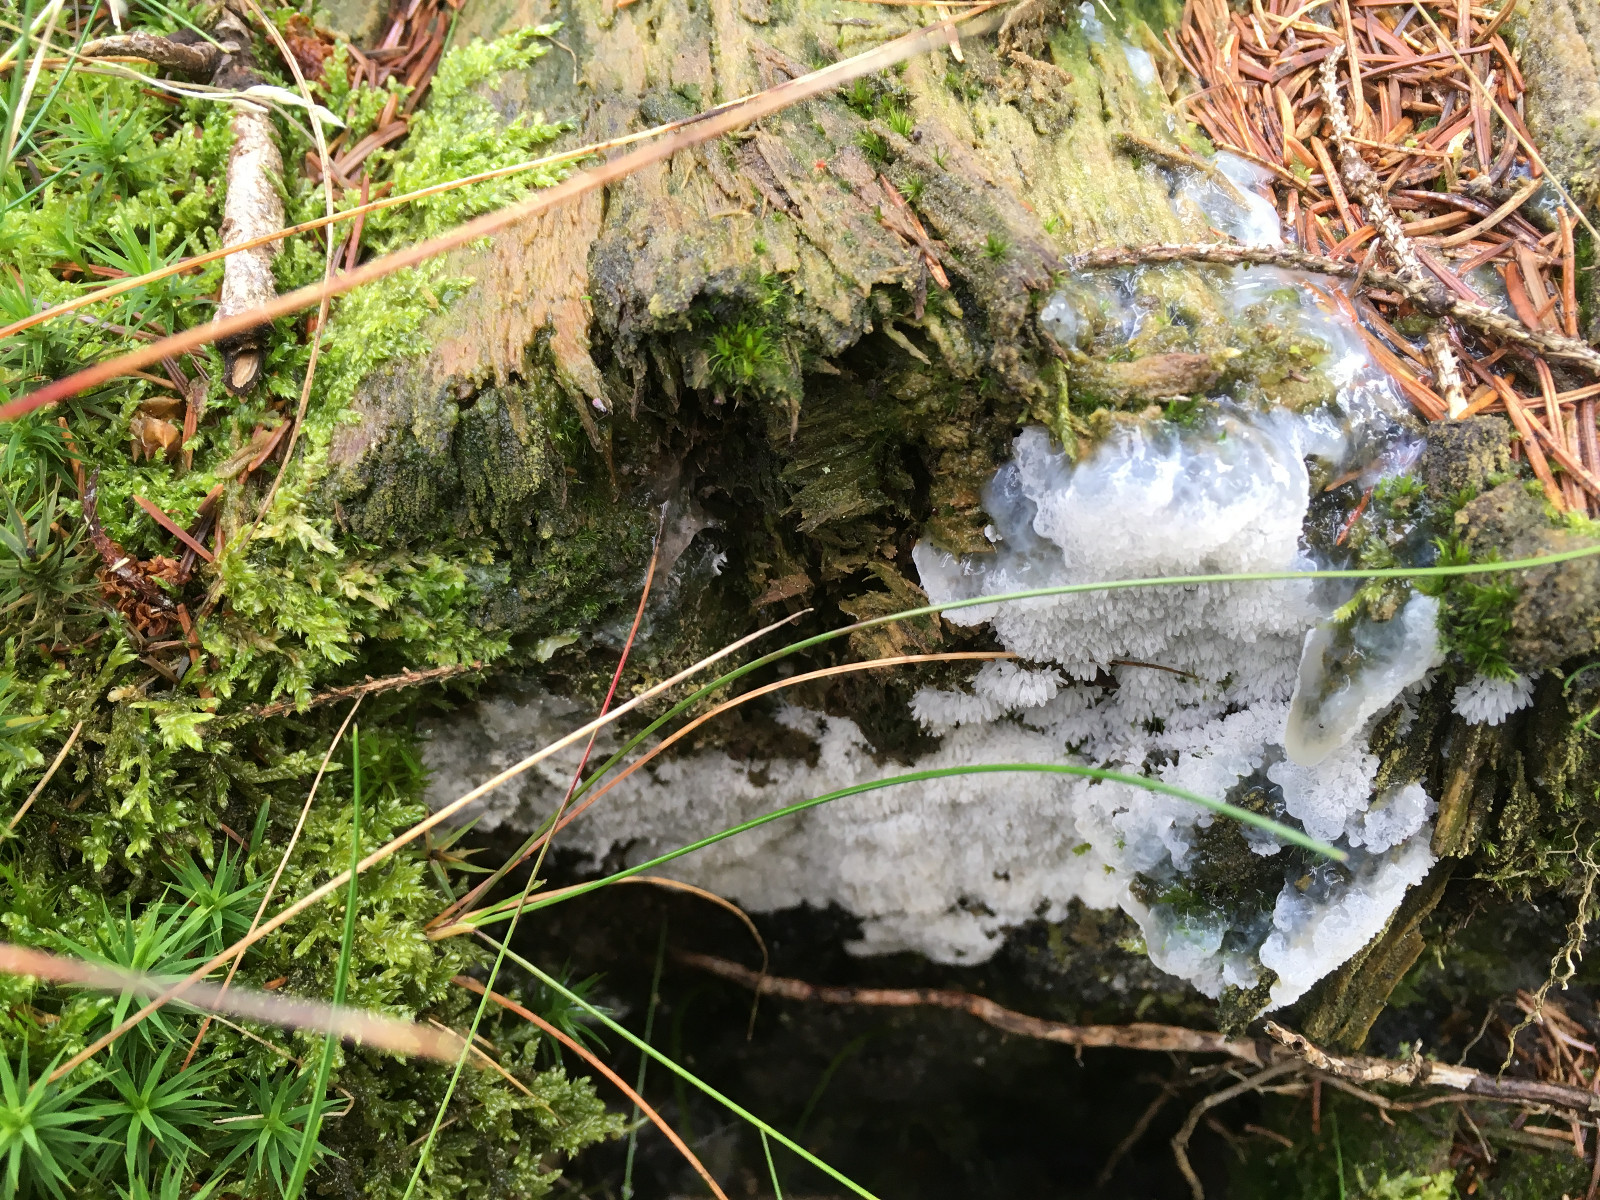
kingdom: Protozoa
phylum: Mycetozoa
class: Protosteliomycetes
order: Ceratiomyxales
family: Ceratiomyxaceae
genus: Ceratiomyxa
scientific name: Ceratiomyxa fruticulosa
